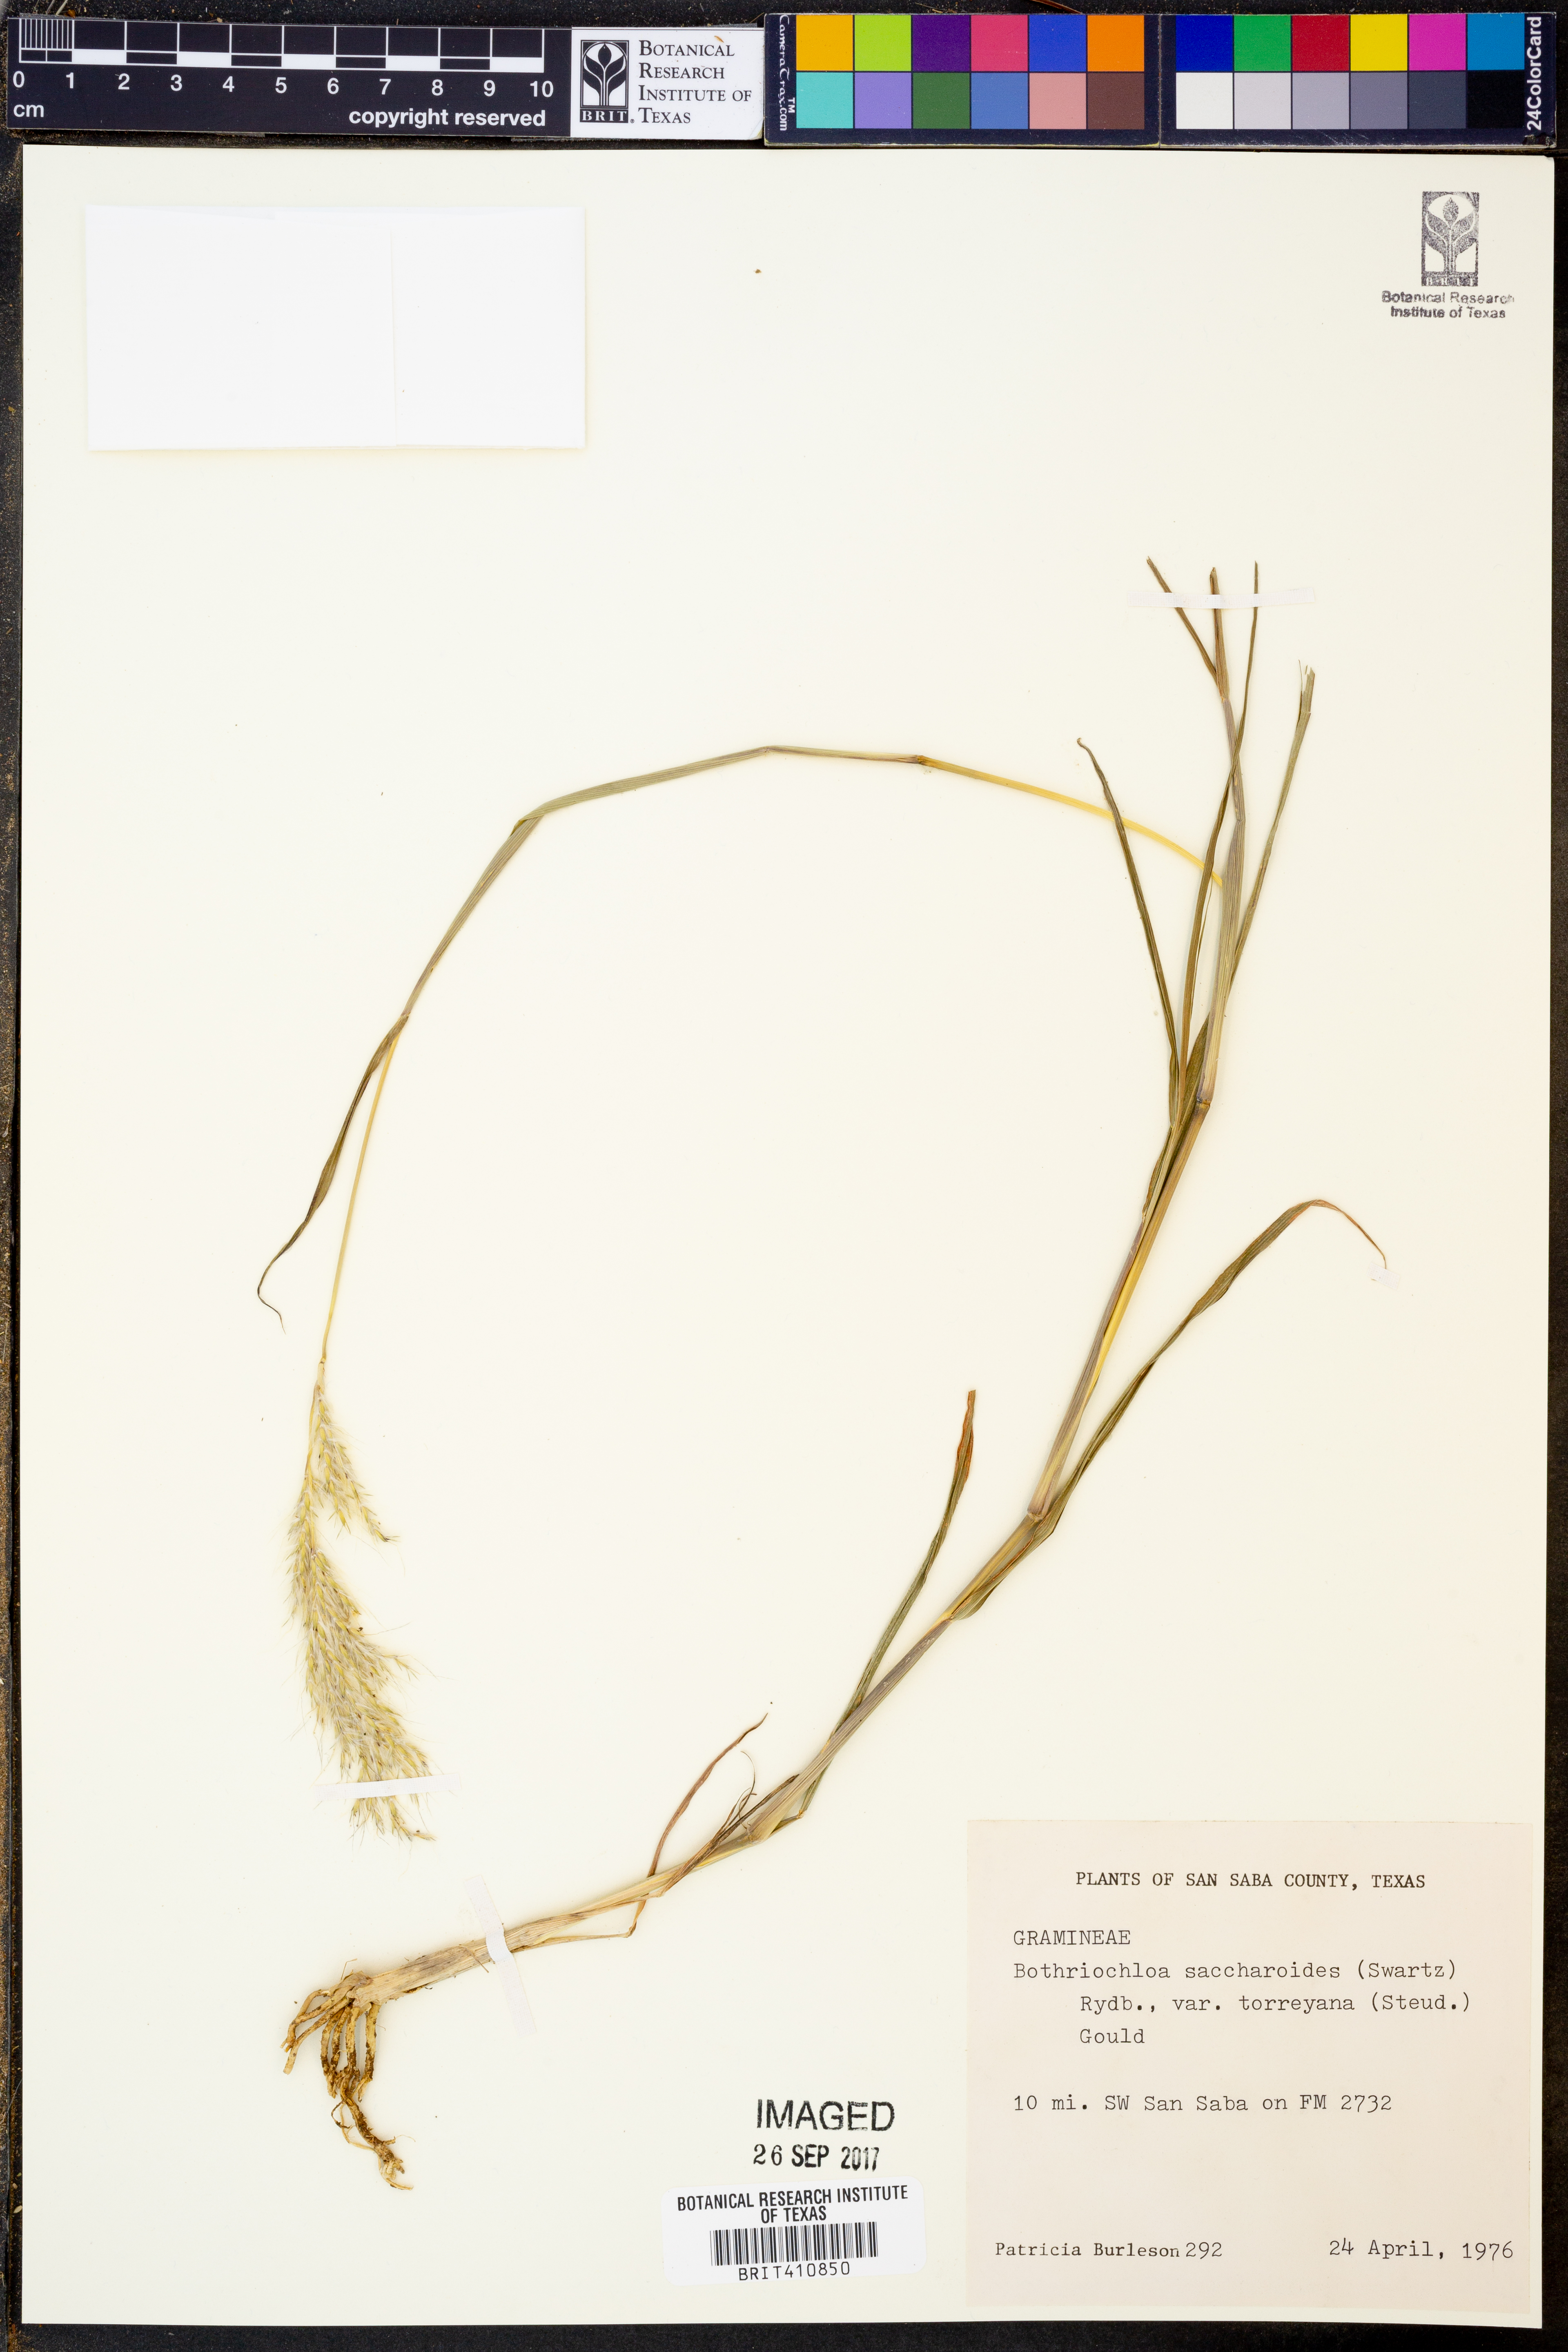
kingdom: Plantae
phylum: Tracheophyta
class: Liliopsida
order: Poales
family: Poaceae
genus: Bothriochloa
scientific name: Bothriochloa saccharoides
